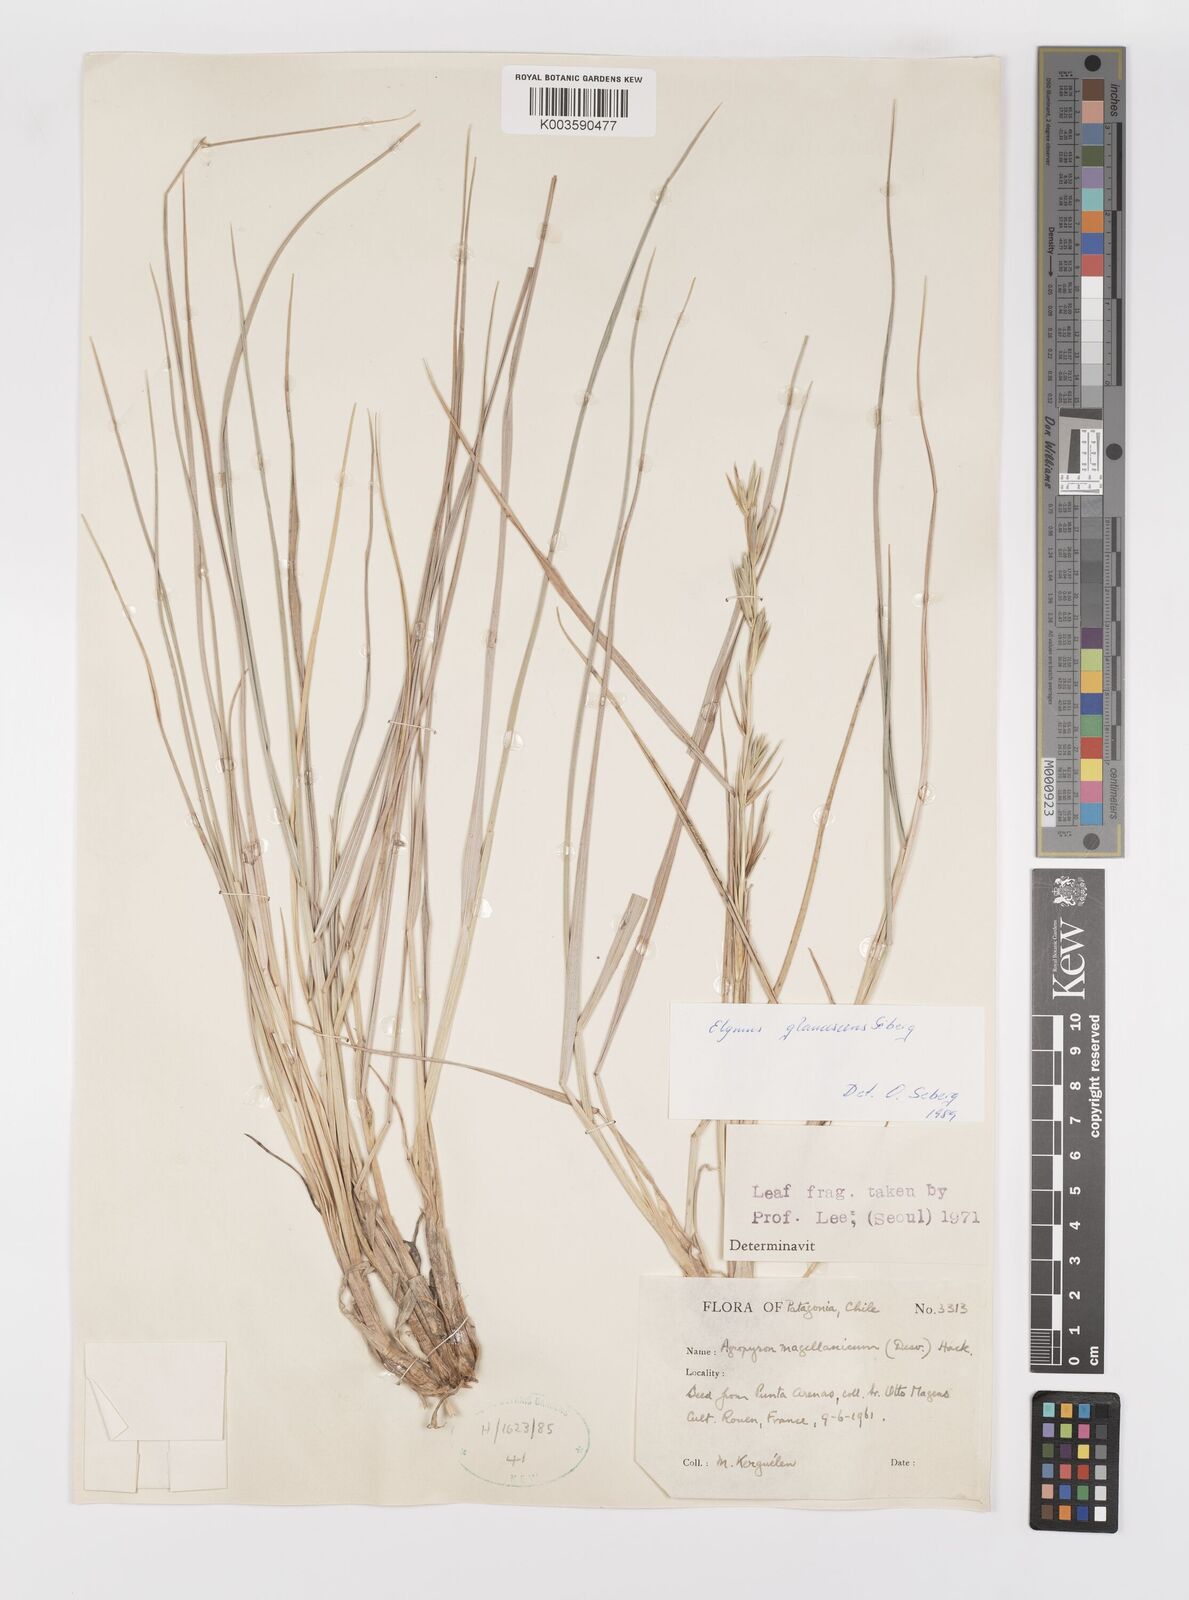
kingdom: Plantae
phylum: Tracheophyta
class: Liliopsida
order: Poales
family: Poaceae
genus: Elymus
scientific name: Elymus magellanicus
